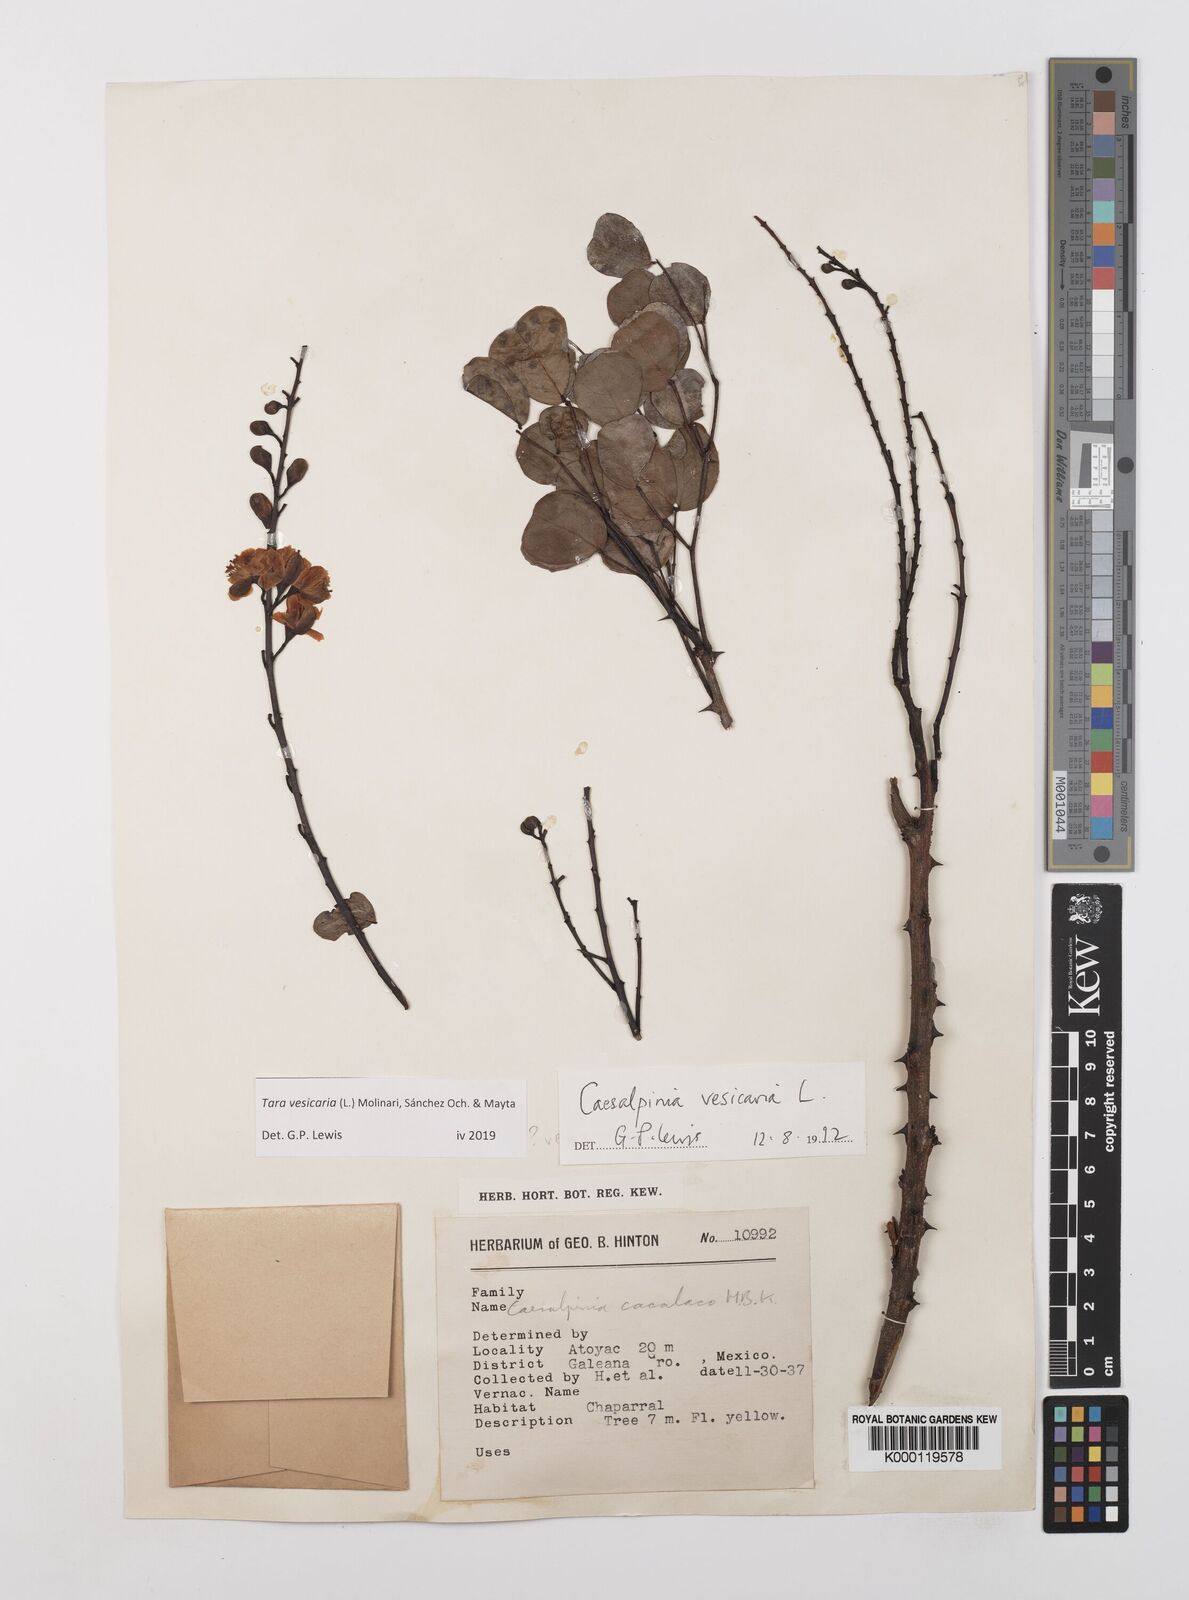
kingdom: Plantae
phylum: Tracheophyta
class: Magnoliopsida
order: Fabales
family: Fabaceae
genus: Tara
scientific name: Tara vesicaria
